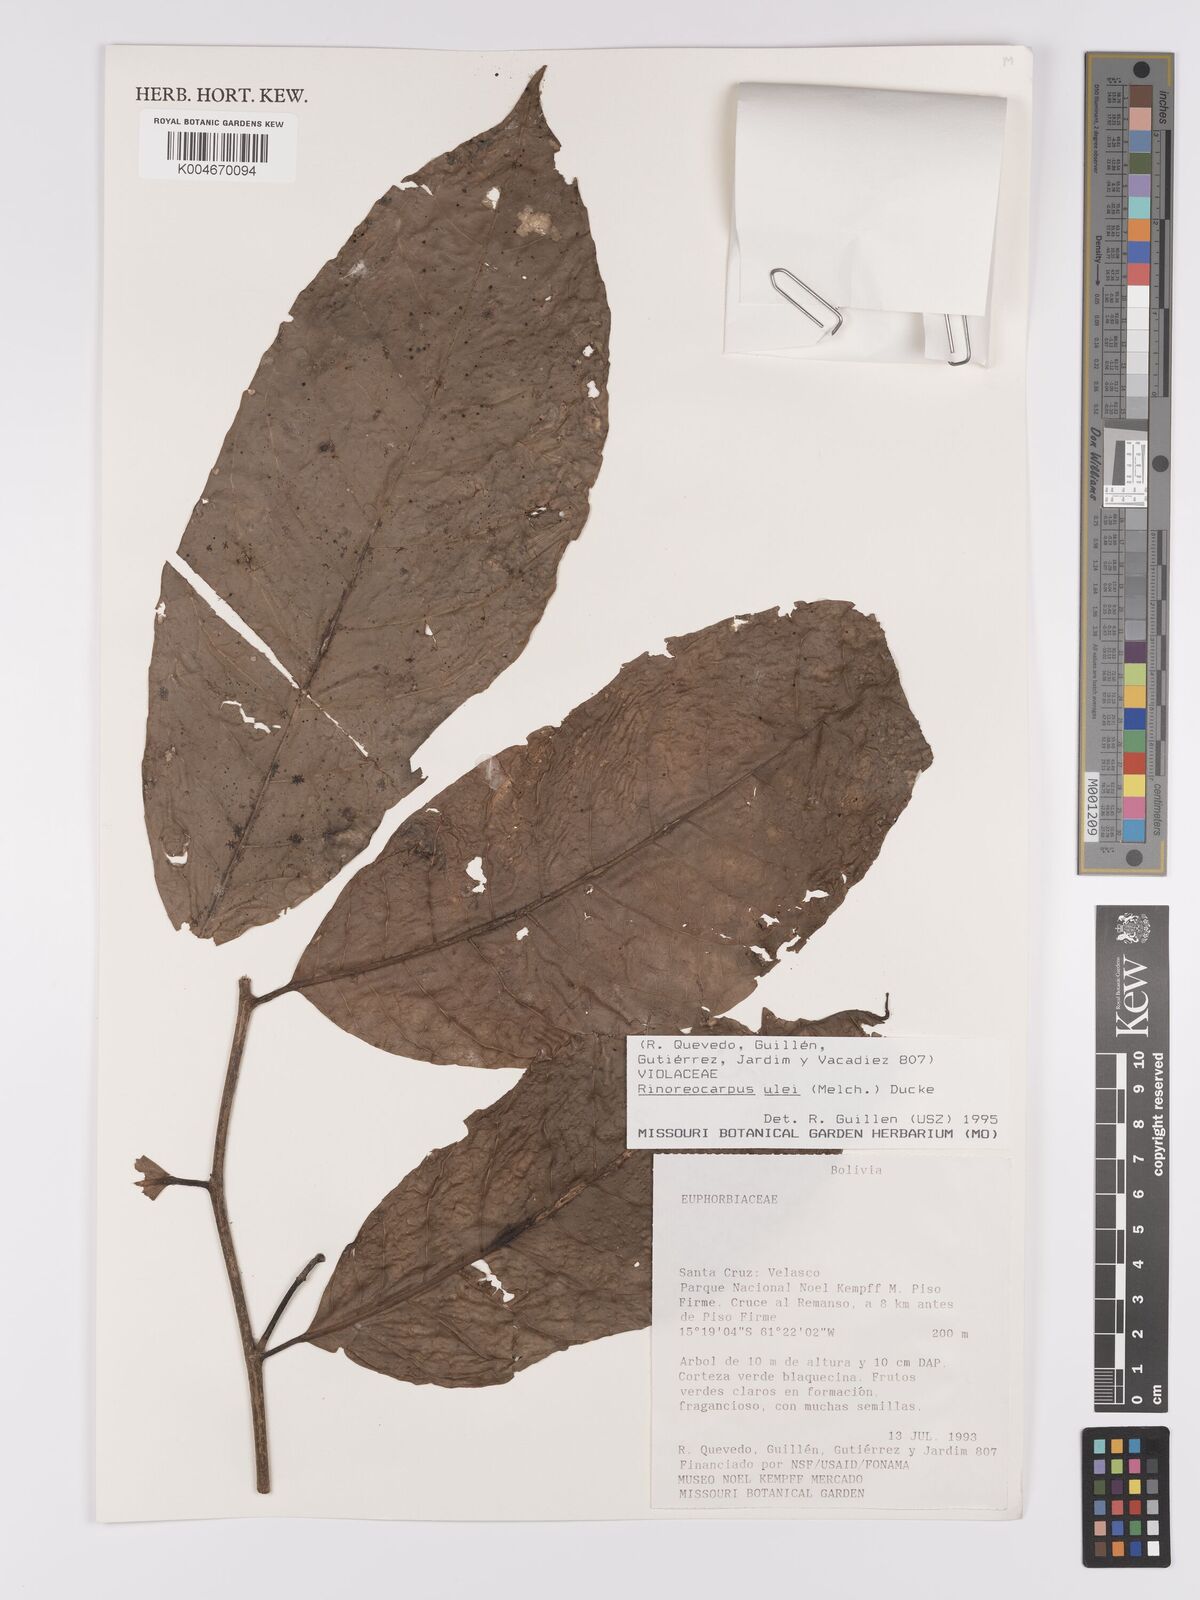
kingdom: Plantae
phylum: Tracheophyta
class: Magnoliopsida
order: Malpighiales
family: Violaceae
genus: Rinoreocarpus
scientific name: Rinoreocarpus ulei
